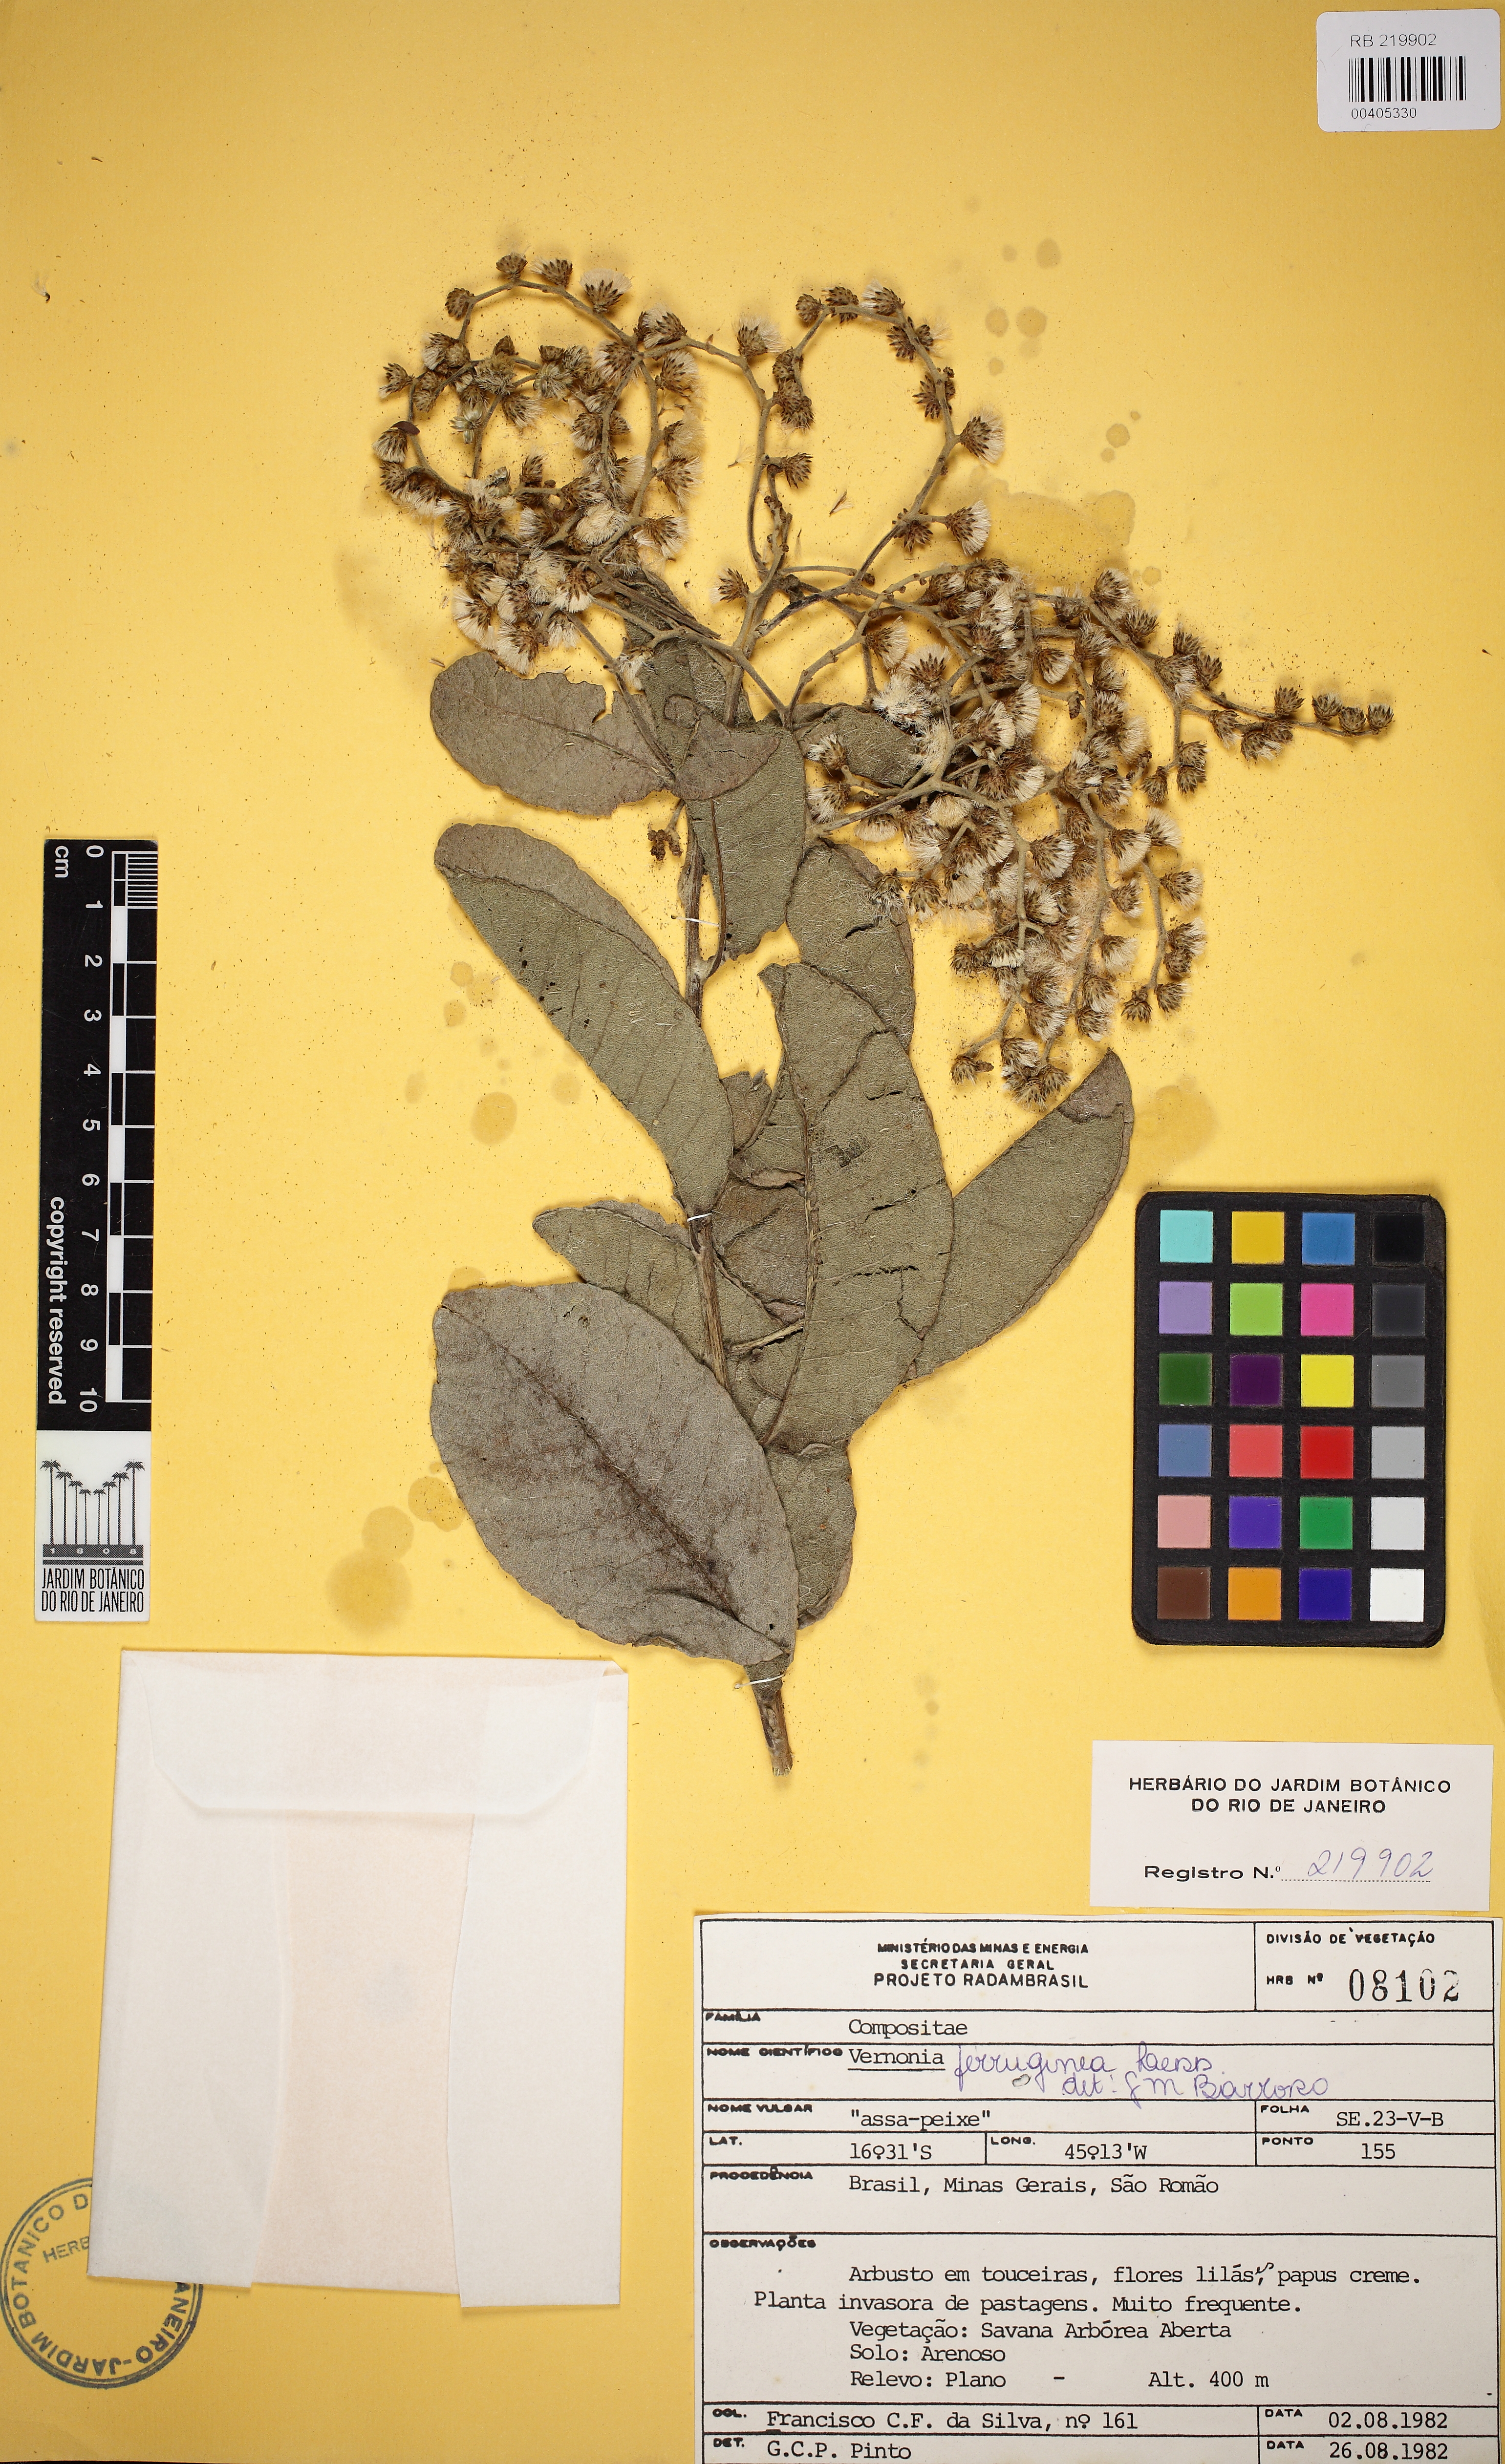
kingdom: Plantae
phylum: Tracheophyta
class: Liliopsida
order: Poales
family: Poaceae
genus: Elymus
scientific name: Elymus longiaristatus
